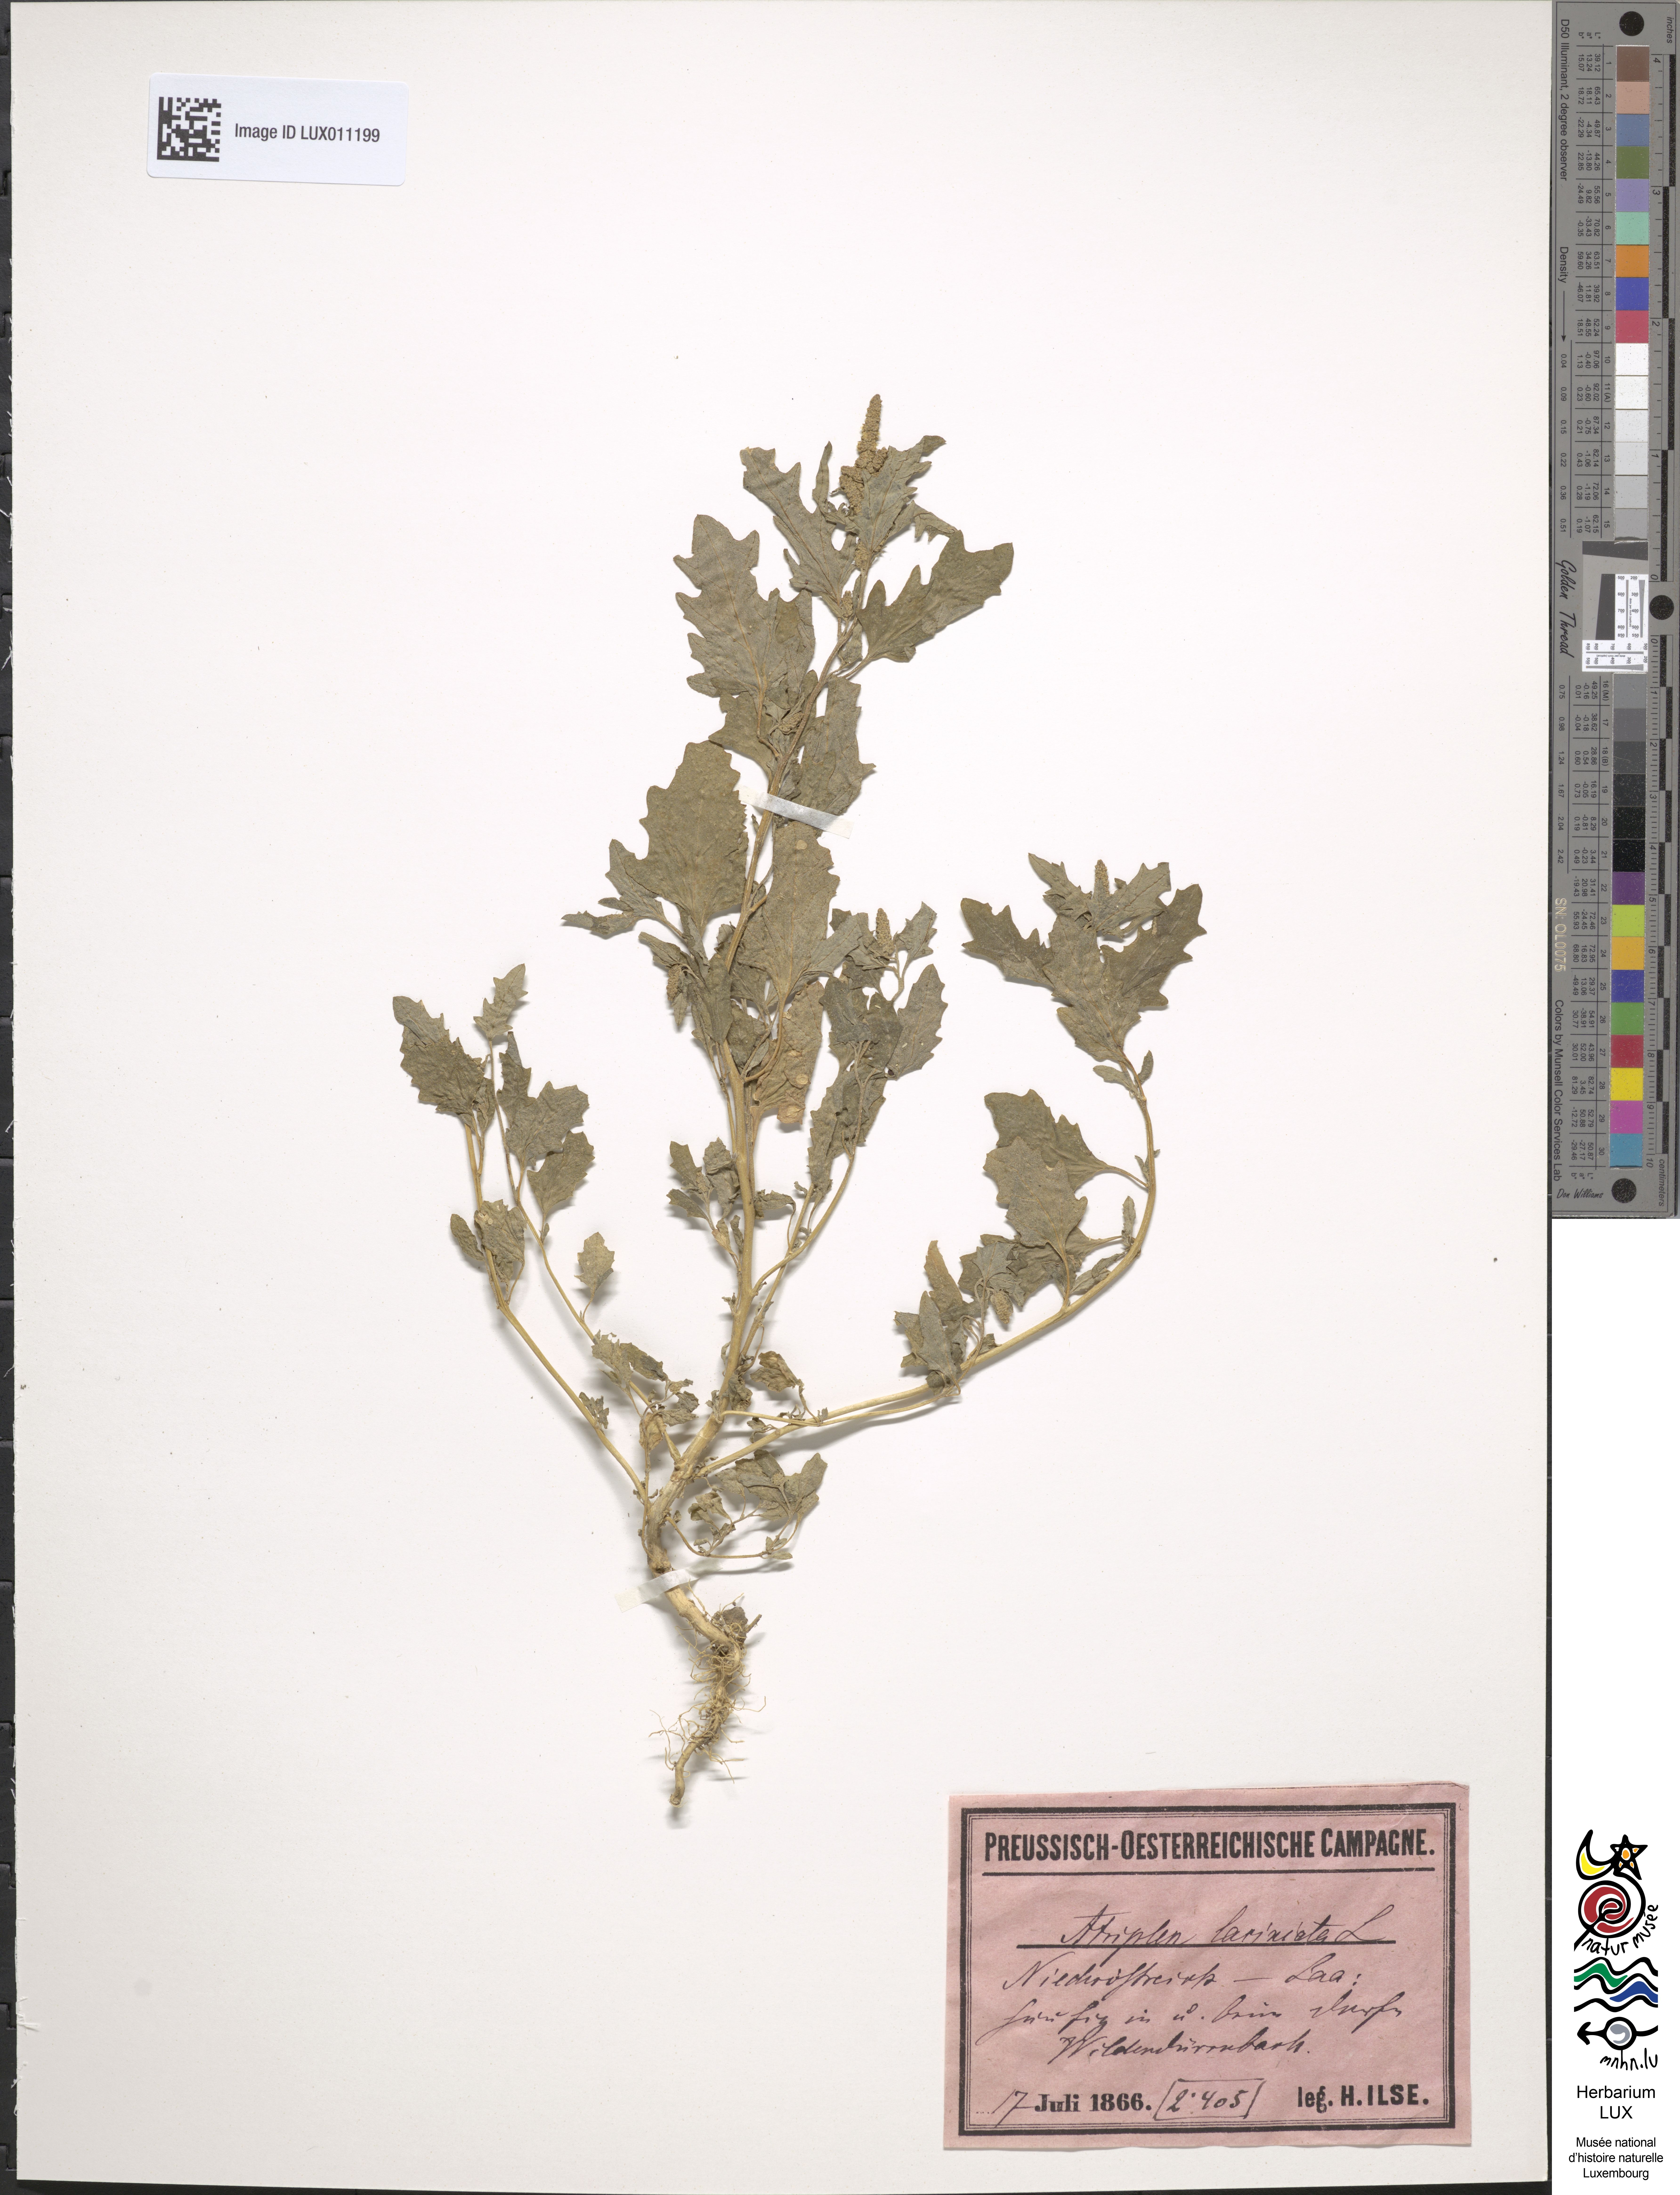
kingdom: Plantae
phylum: Tracheophyta
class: Magnoliopsida
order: Caryophyllales
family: Amaranthaceae
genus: Atriplex
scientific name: Atriplex laciniata
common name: Frosted orache
